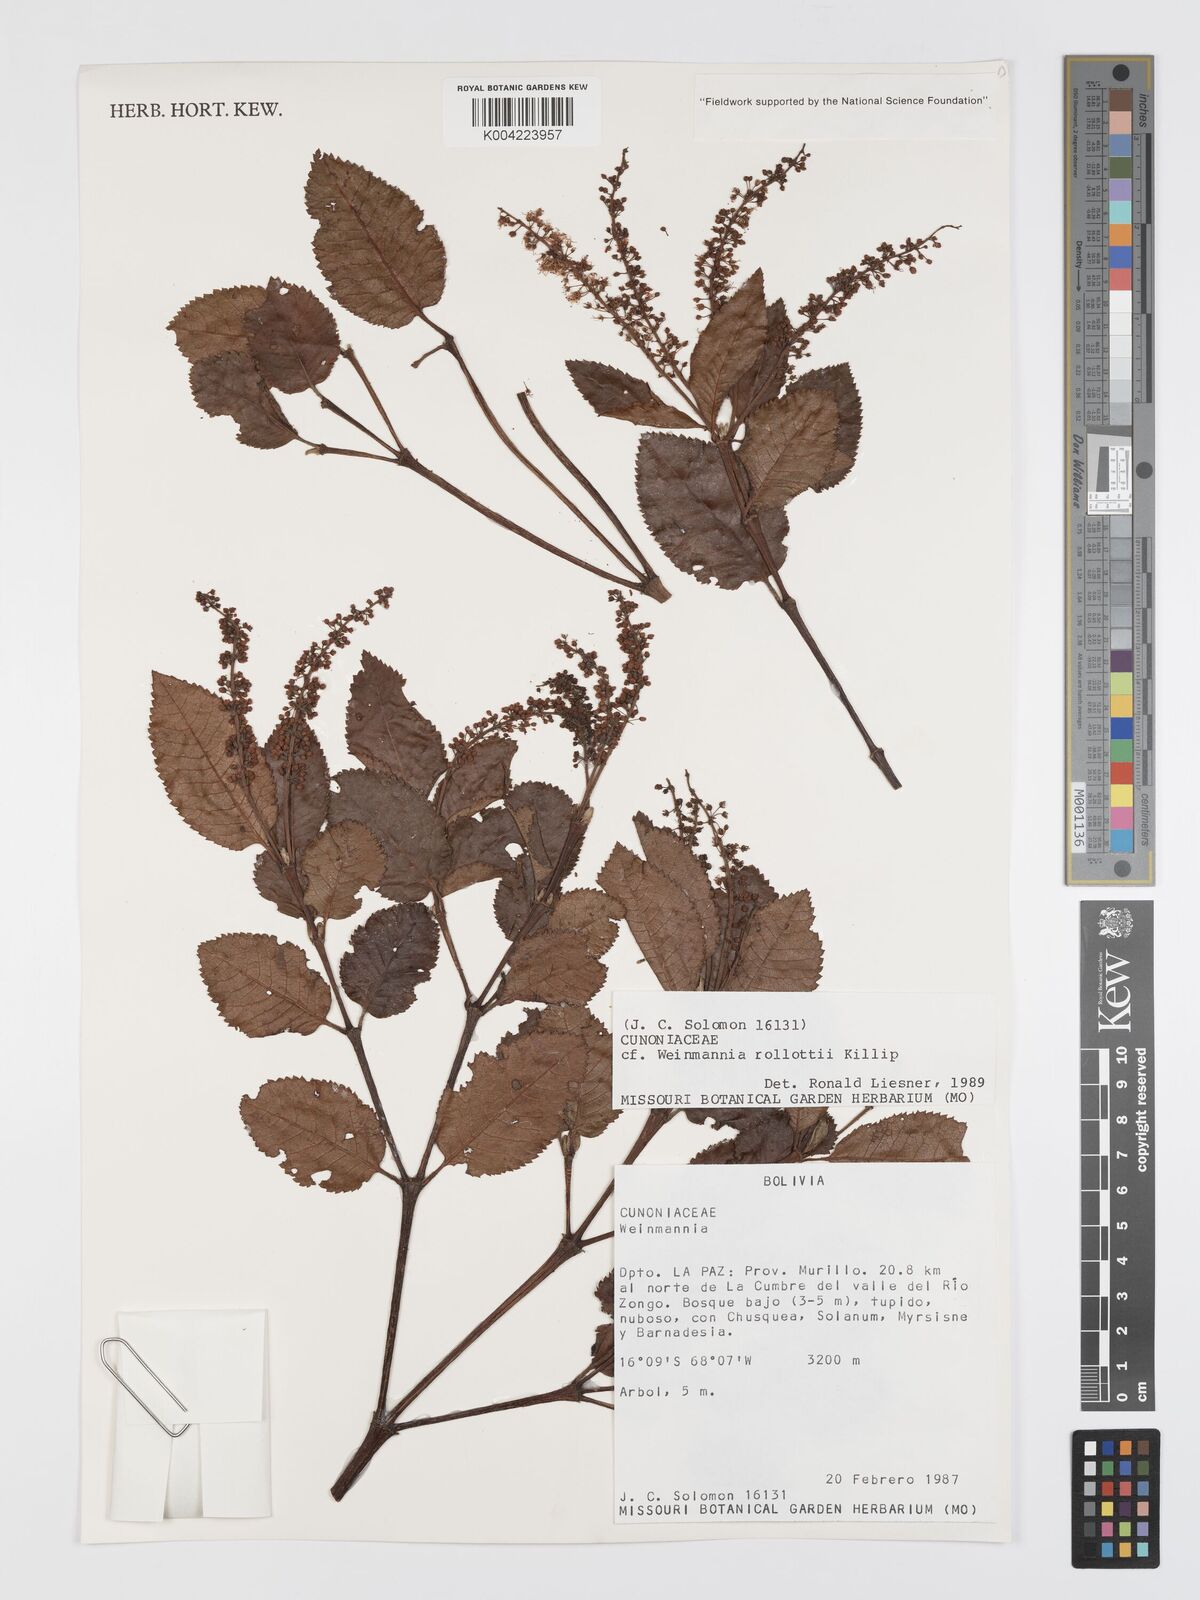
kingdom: Plantae
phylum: Tracheophyta
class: Magnoliopsida
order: Oxalidales
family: Cunoniaceae
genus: Weinmannia
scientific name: Weinmannia rollottii
